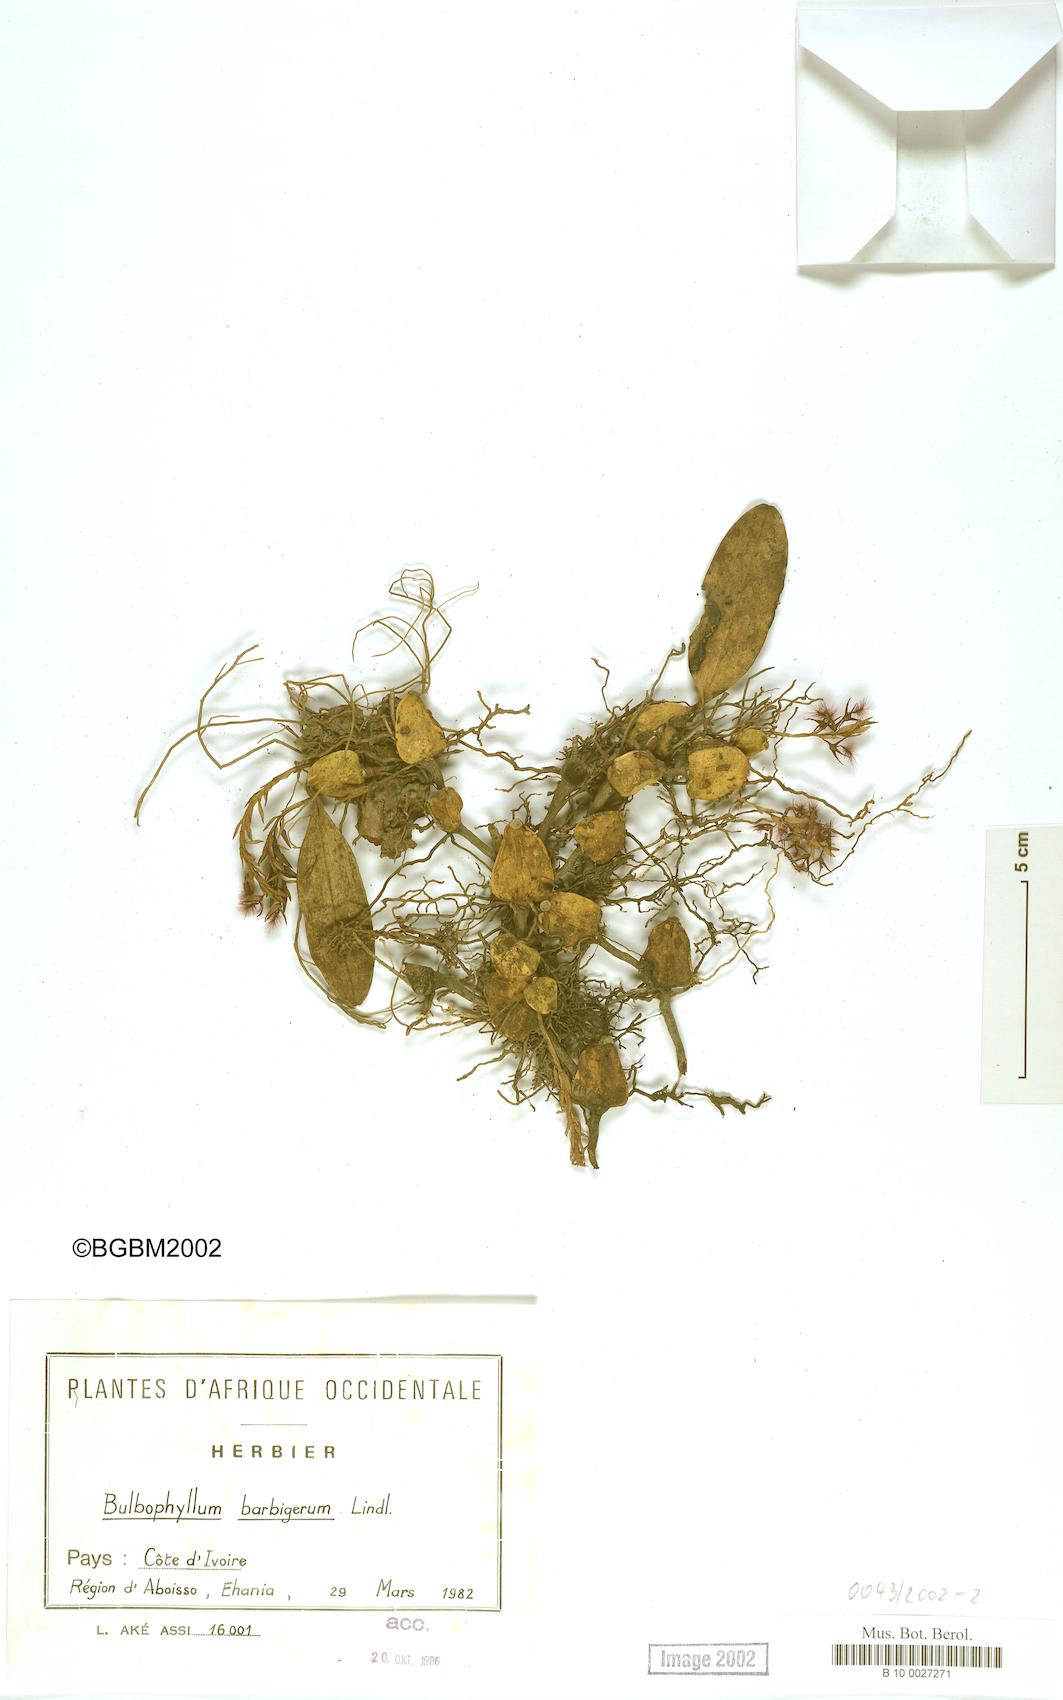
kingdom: Plantae
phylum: Tracheophyta
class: Liliopsida
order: Asparagales
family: Orchidaceae
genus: Bulbophyllum
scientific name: Bulbophyllum barbigerum
